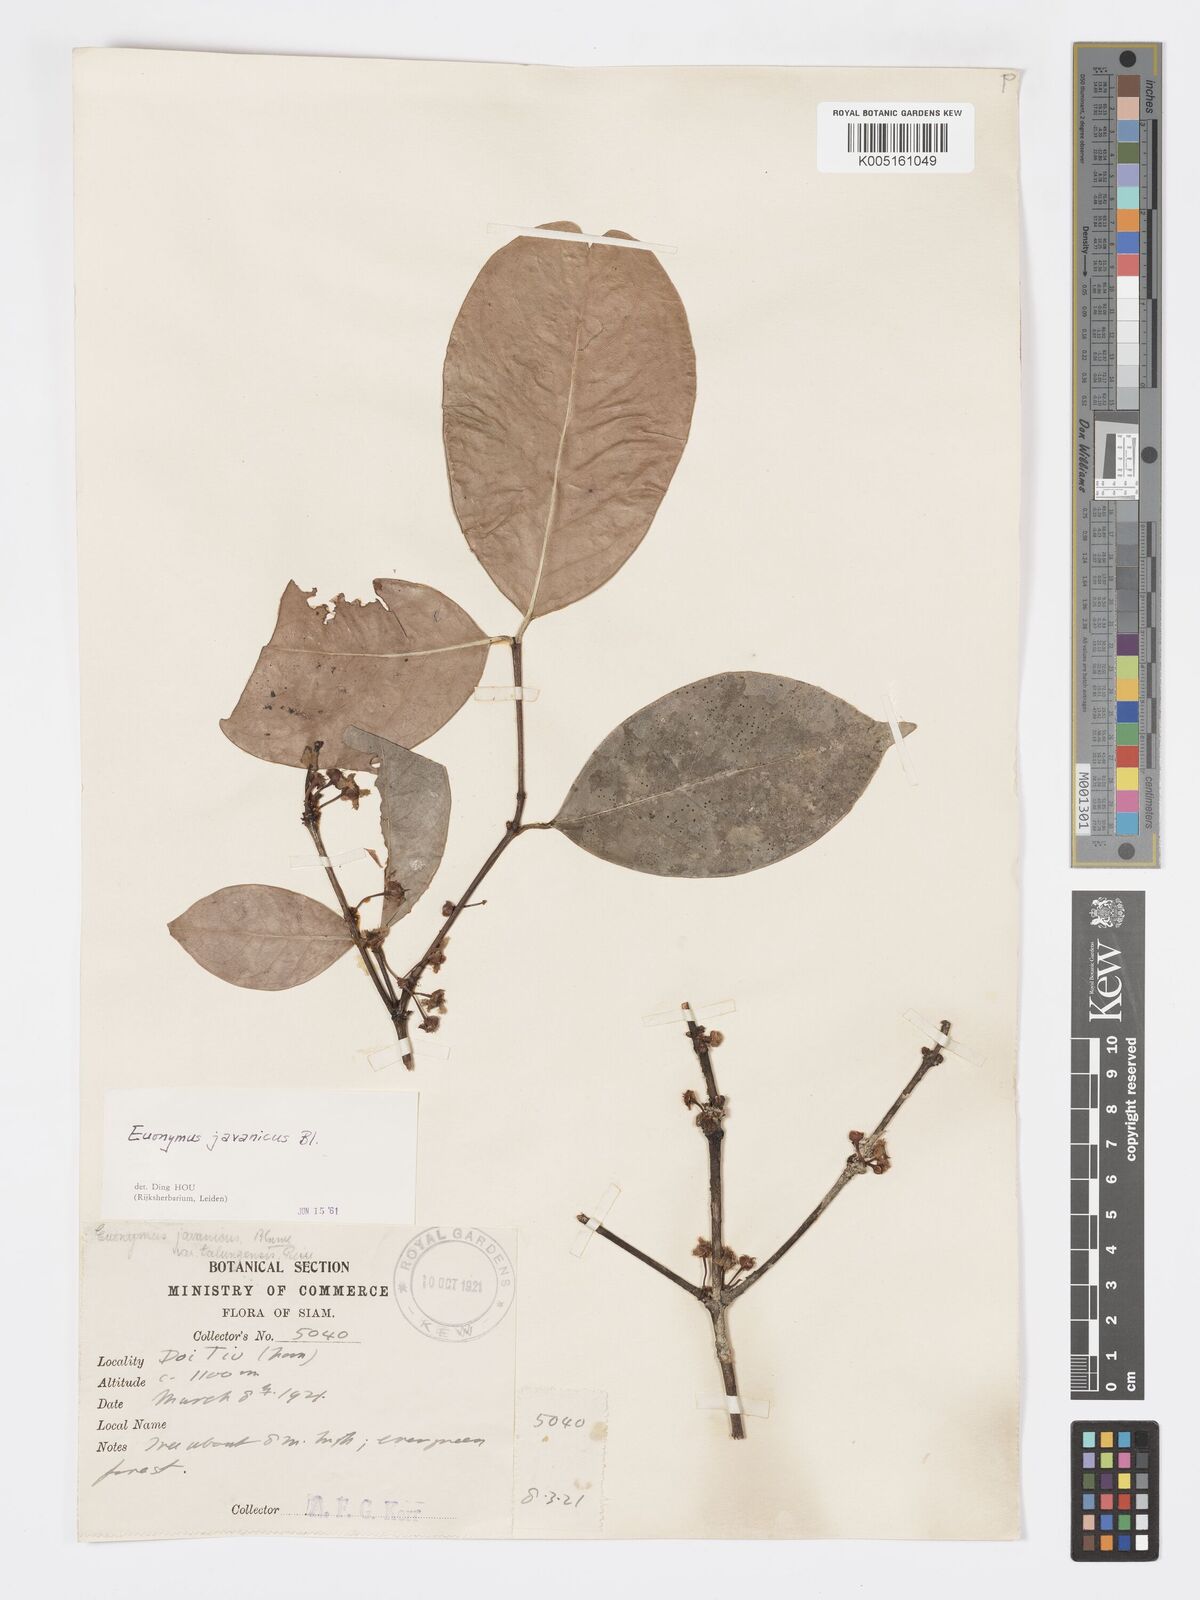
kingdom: Plantae
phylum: Tracheophyta
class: Magnoliopsida
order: Celastrales
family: Celastraceae
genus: Euonymus
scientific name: Euonymus indicus
